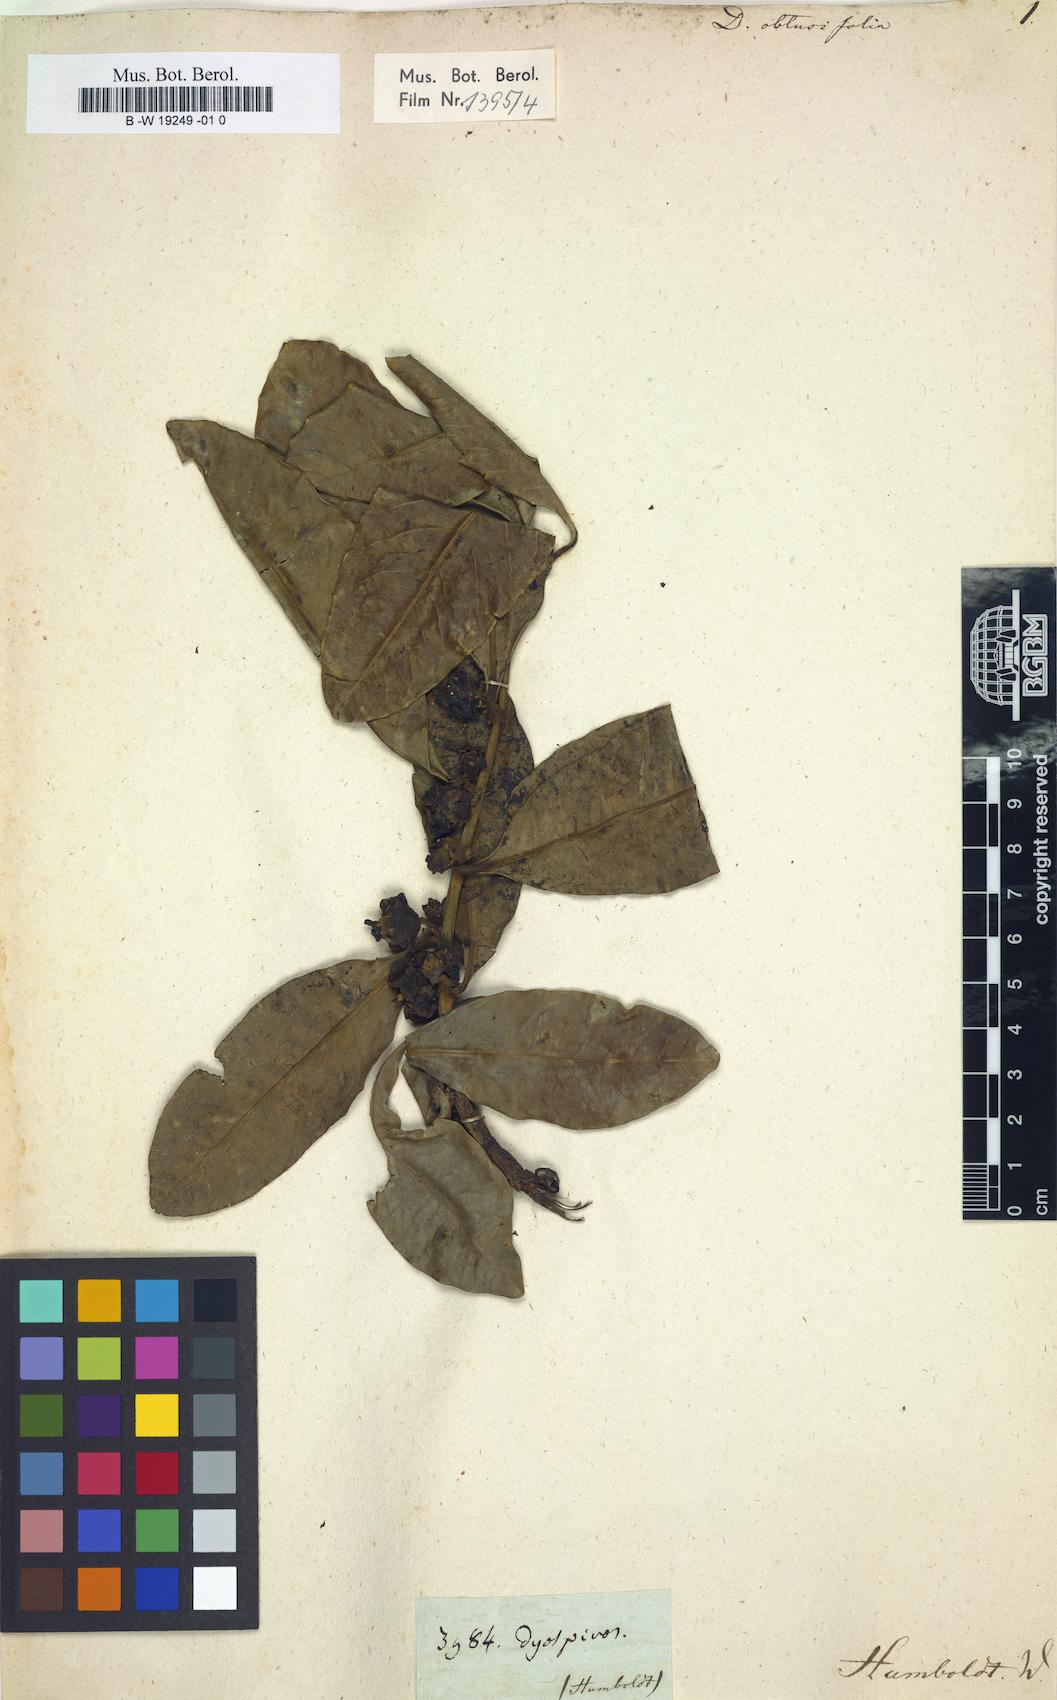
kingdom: Plantae
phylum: Tracheophyta
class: Magnoliopsida
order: Ericales
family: Ebenaceae
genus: Diospyros
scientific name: Diospyros
